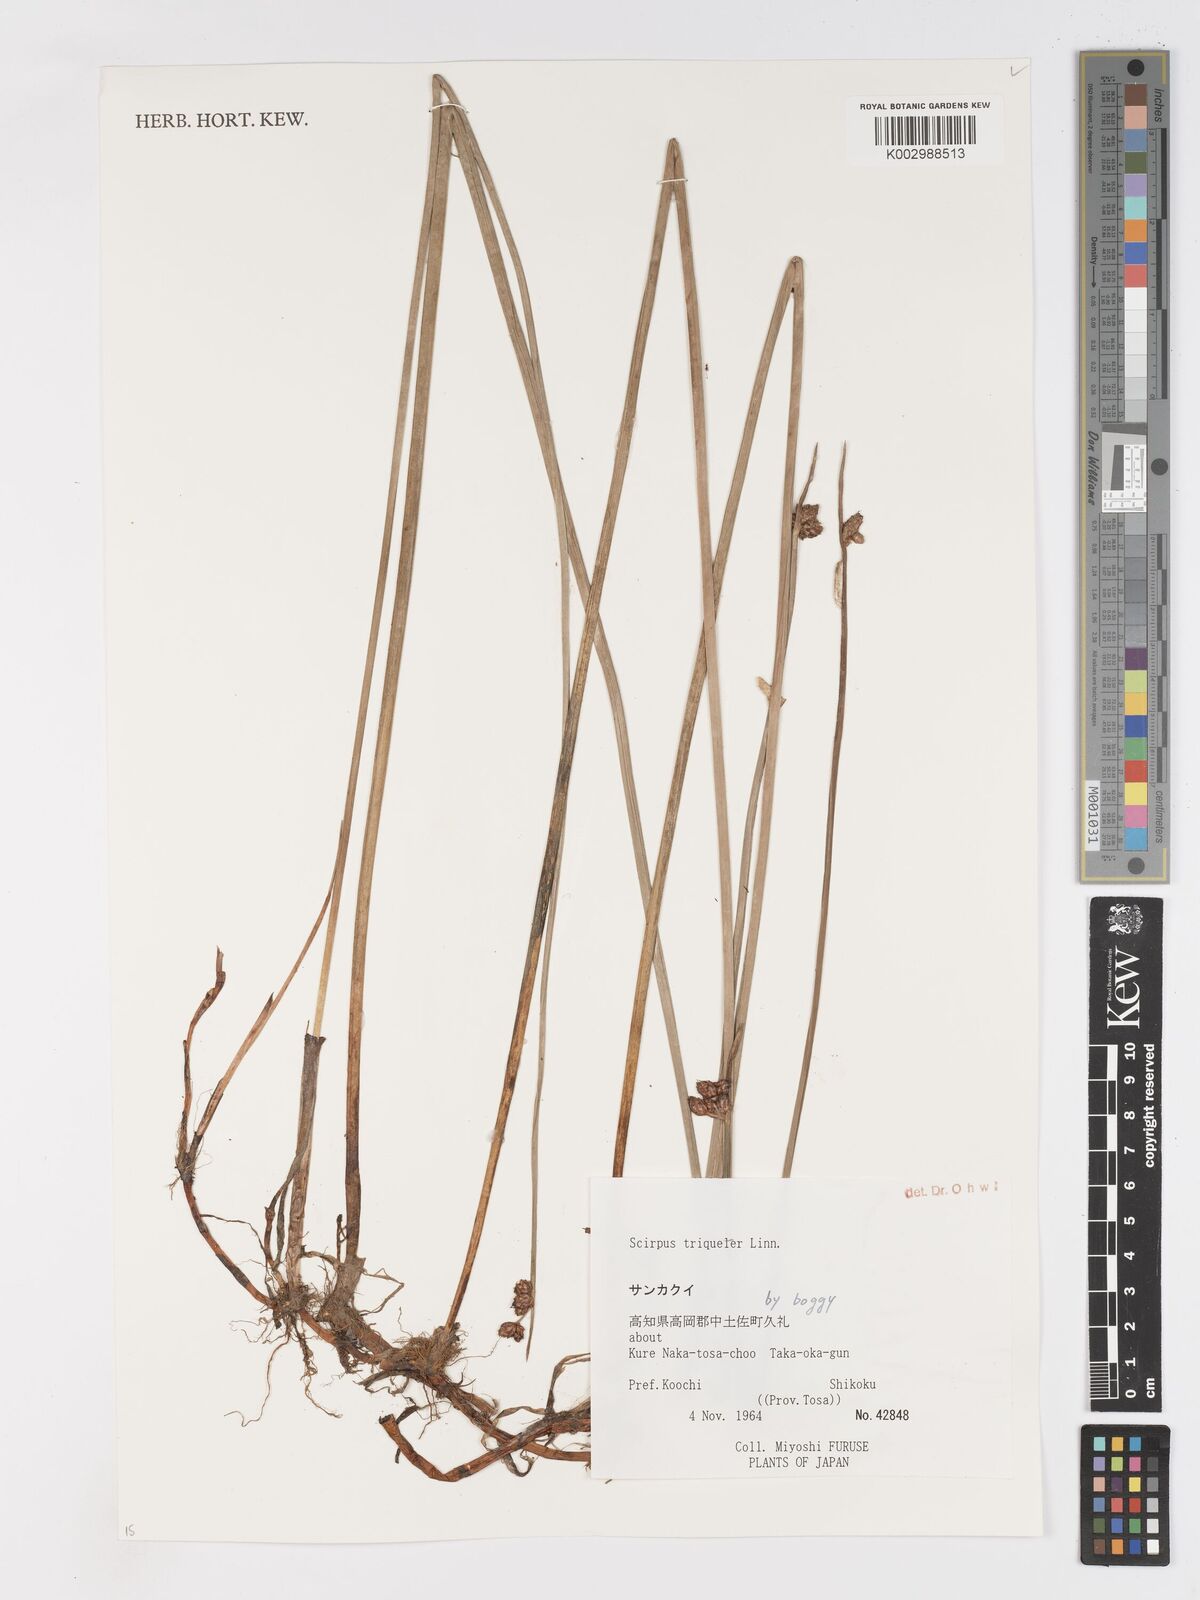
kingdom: Plantae
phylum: Tracheophyta
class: Liliopsida
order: Poales
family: Cyperaceae
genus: Schoenoplectus
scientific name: Schoenoplectus triqueter
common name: Triangular club-rush
